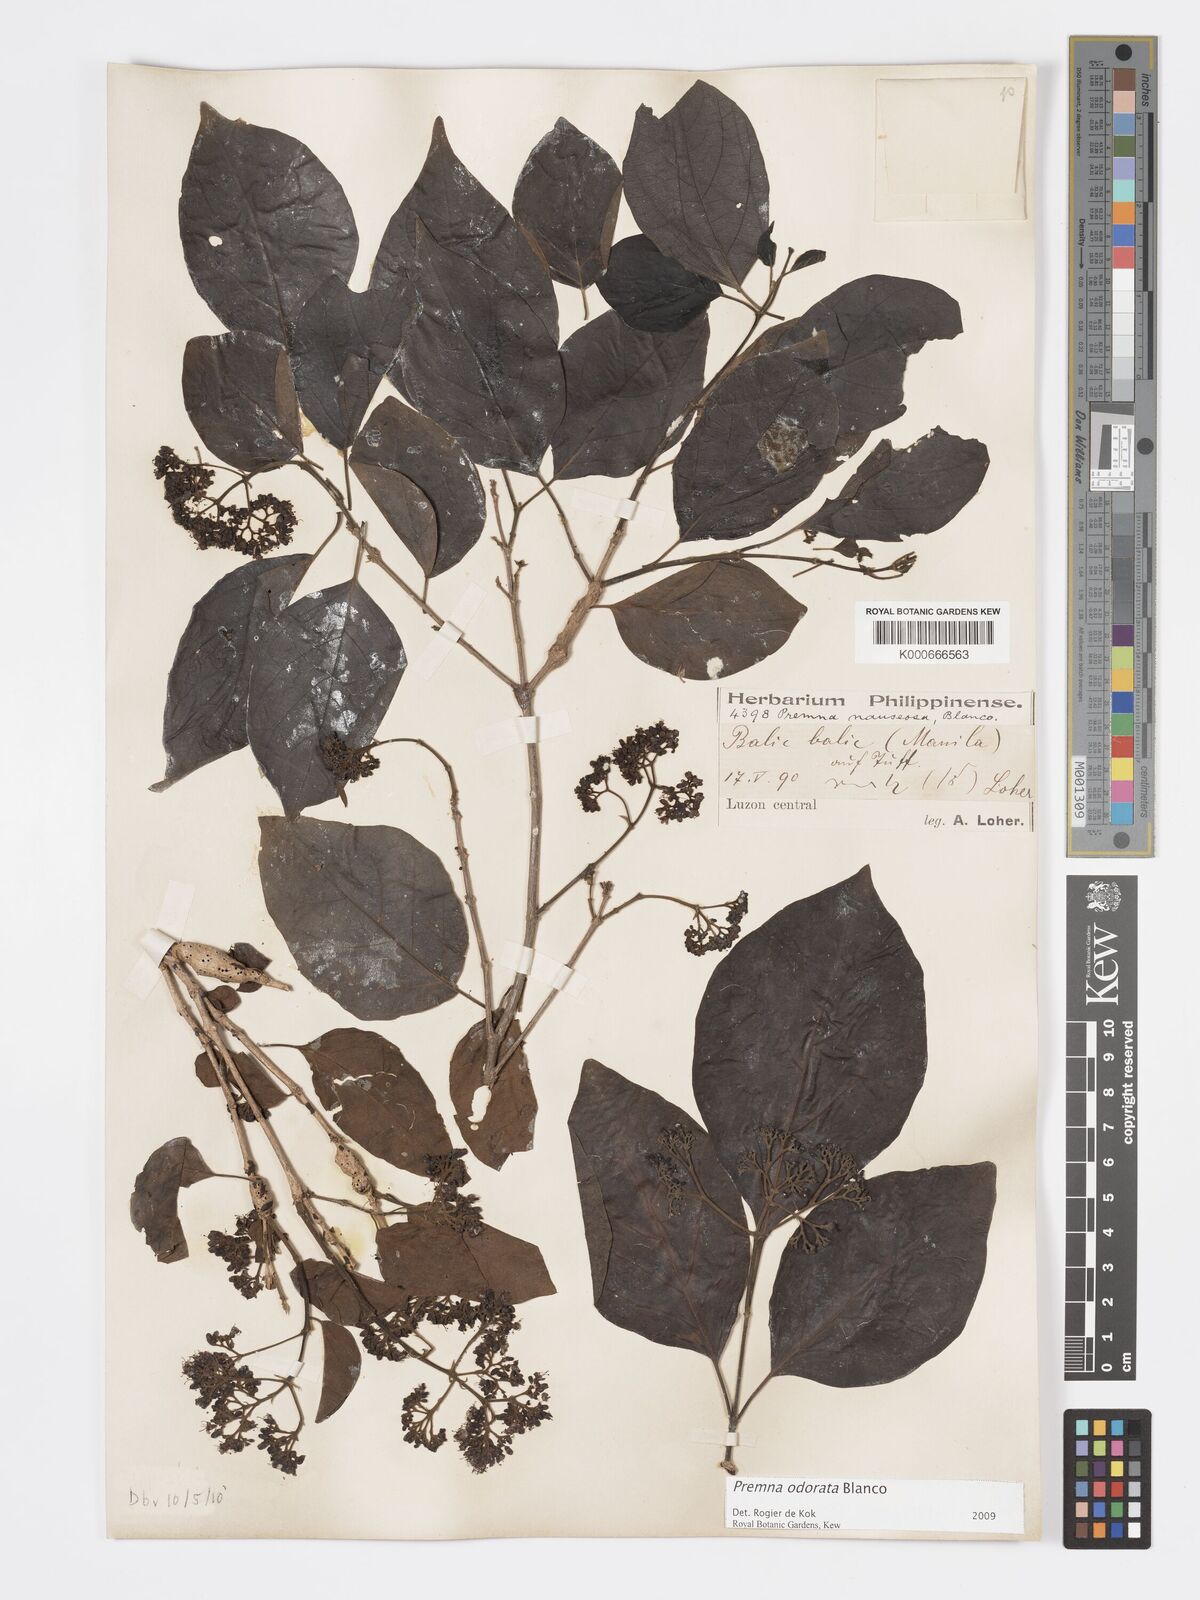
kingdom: Plantae
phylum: Tracheophyta
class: Magnoliopsida
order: Lamiales
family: Lamiaceae
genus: Premna
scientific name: Premna odorata
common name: Fragrant premna
